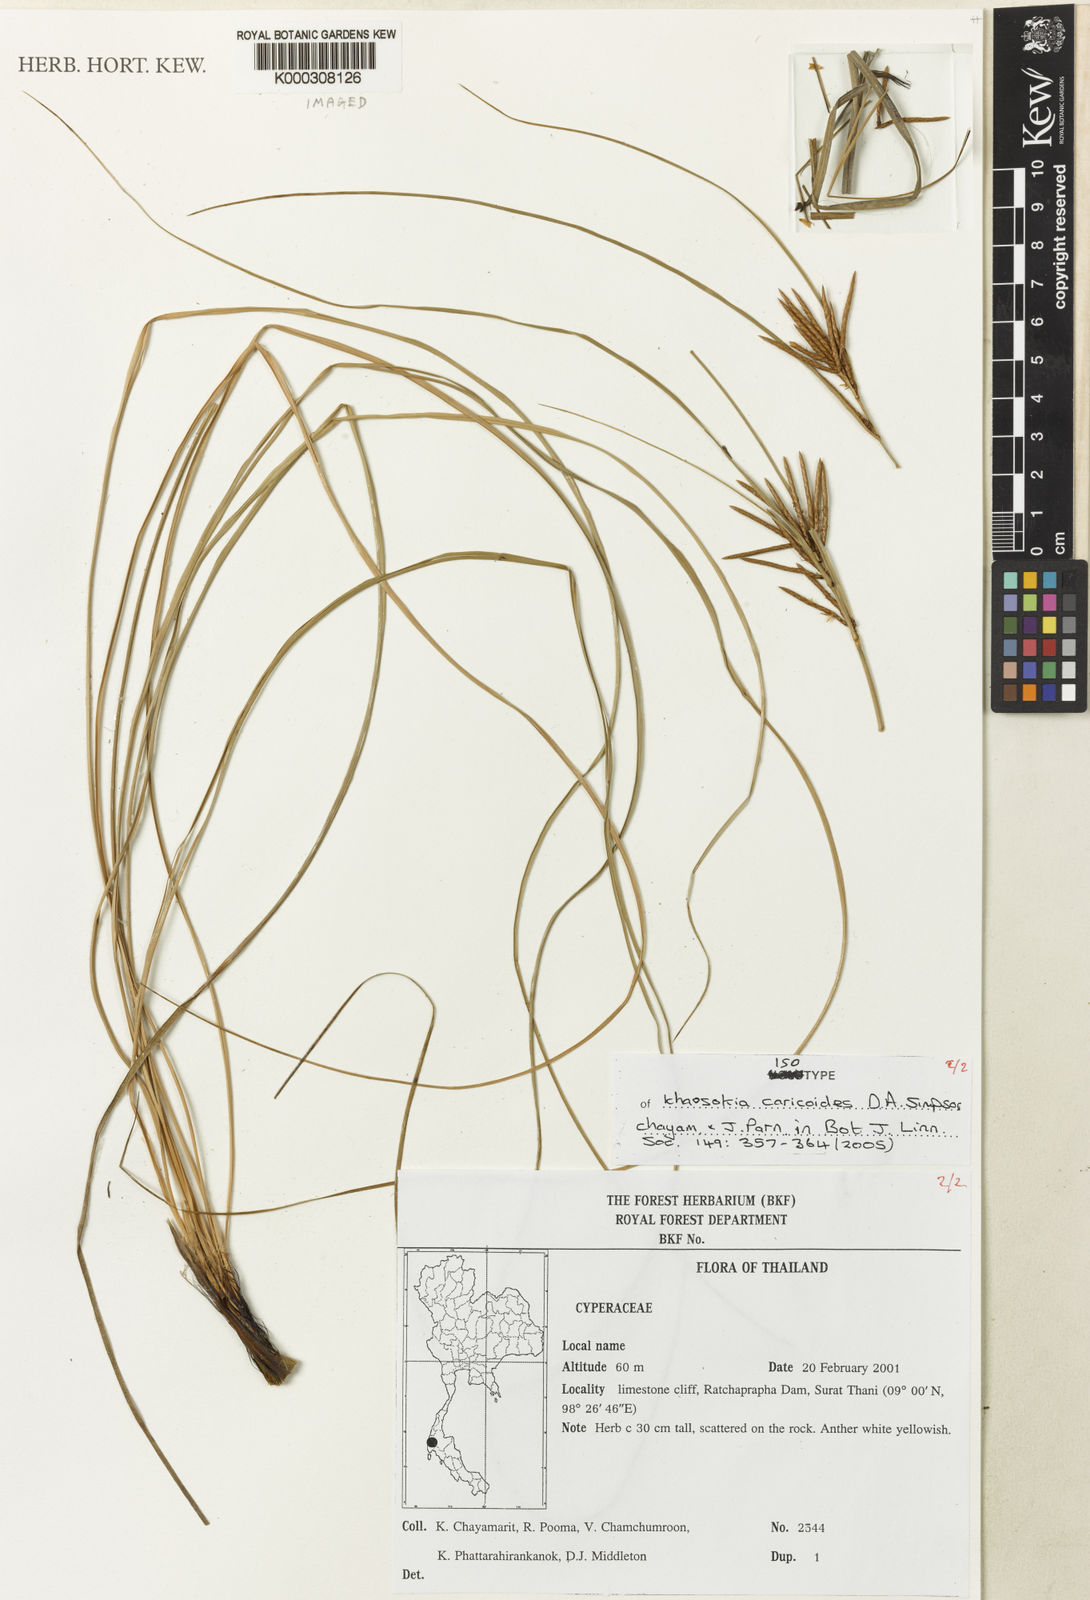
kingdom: Plantae
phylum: Tracheophyta
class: Liliopsida
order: Poales
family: Cyperaceae
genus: Khaosokia
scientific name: Khaosokia
